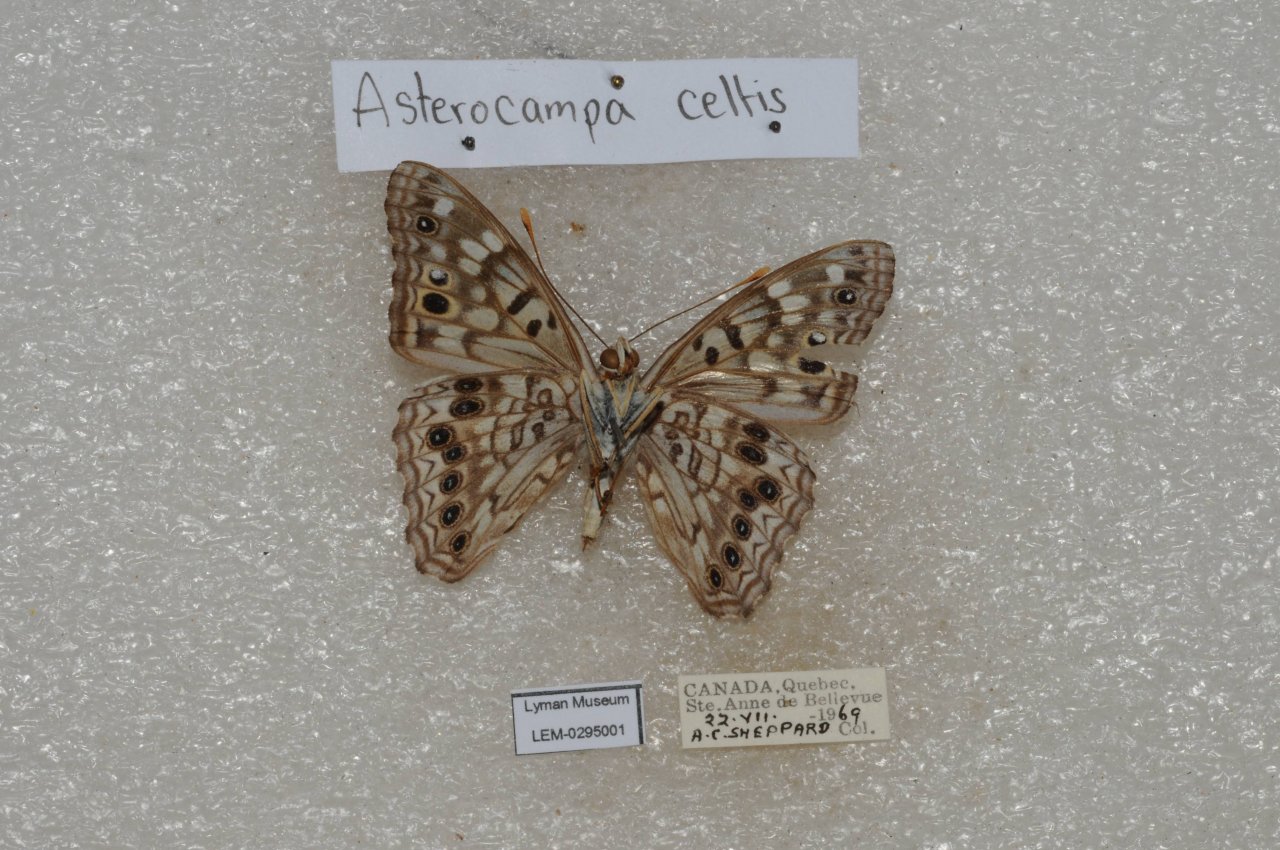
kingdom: Animalia
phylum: Arthropoda
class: Insecta
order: Lepidoptera
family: Nymphalidae
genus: Asterocampa
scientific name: Asterocampa celtis
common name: Hackberry Emperor
